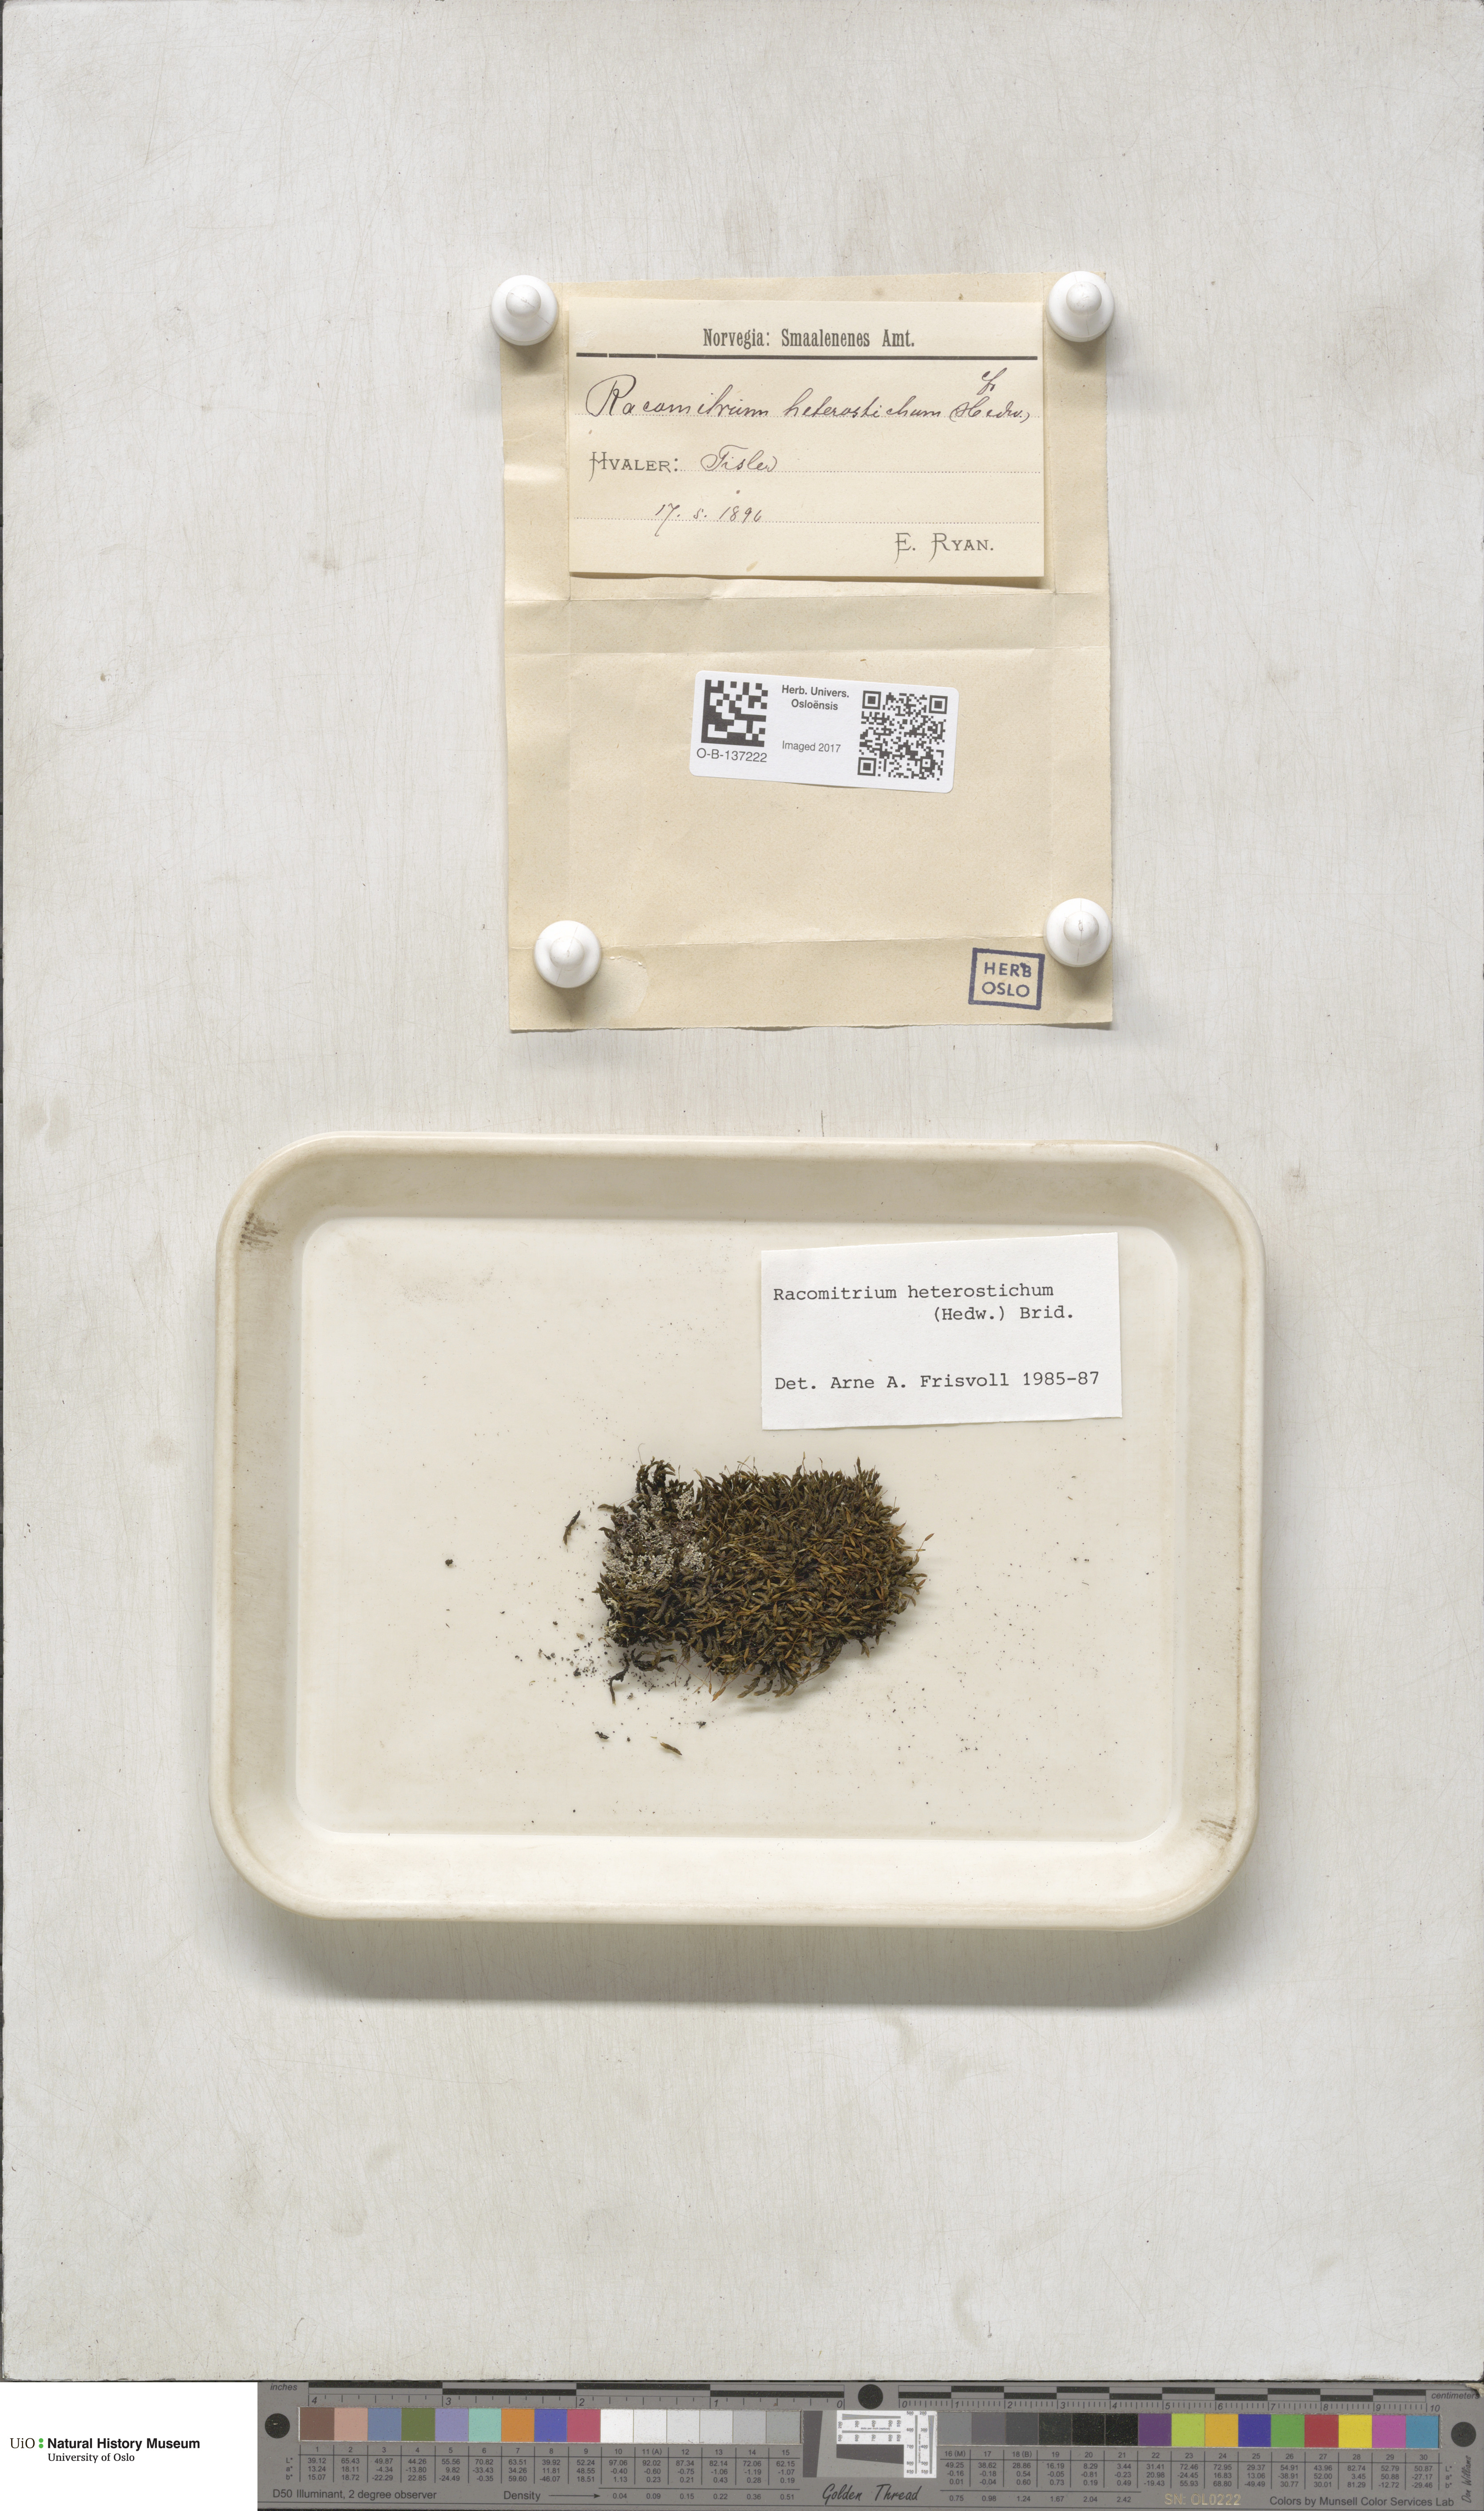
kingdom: Plantae
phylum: Bryophyta
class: Bryopsida
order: Grimmiales
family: Grimmiaceae
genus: Bucklandiella
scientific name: Bucklandiella heterosticha
